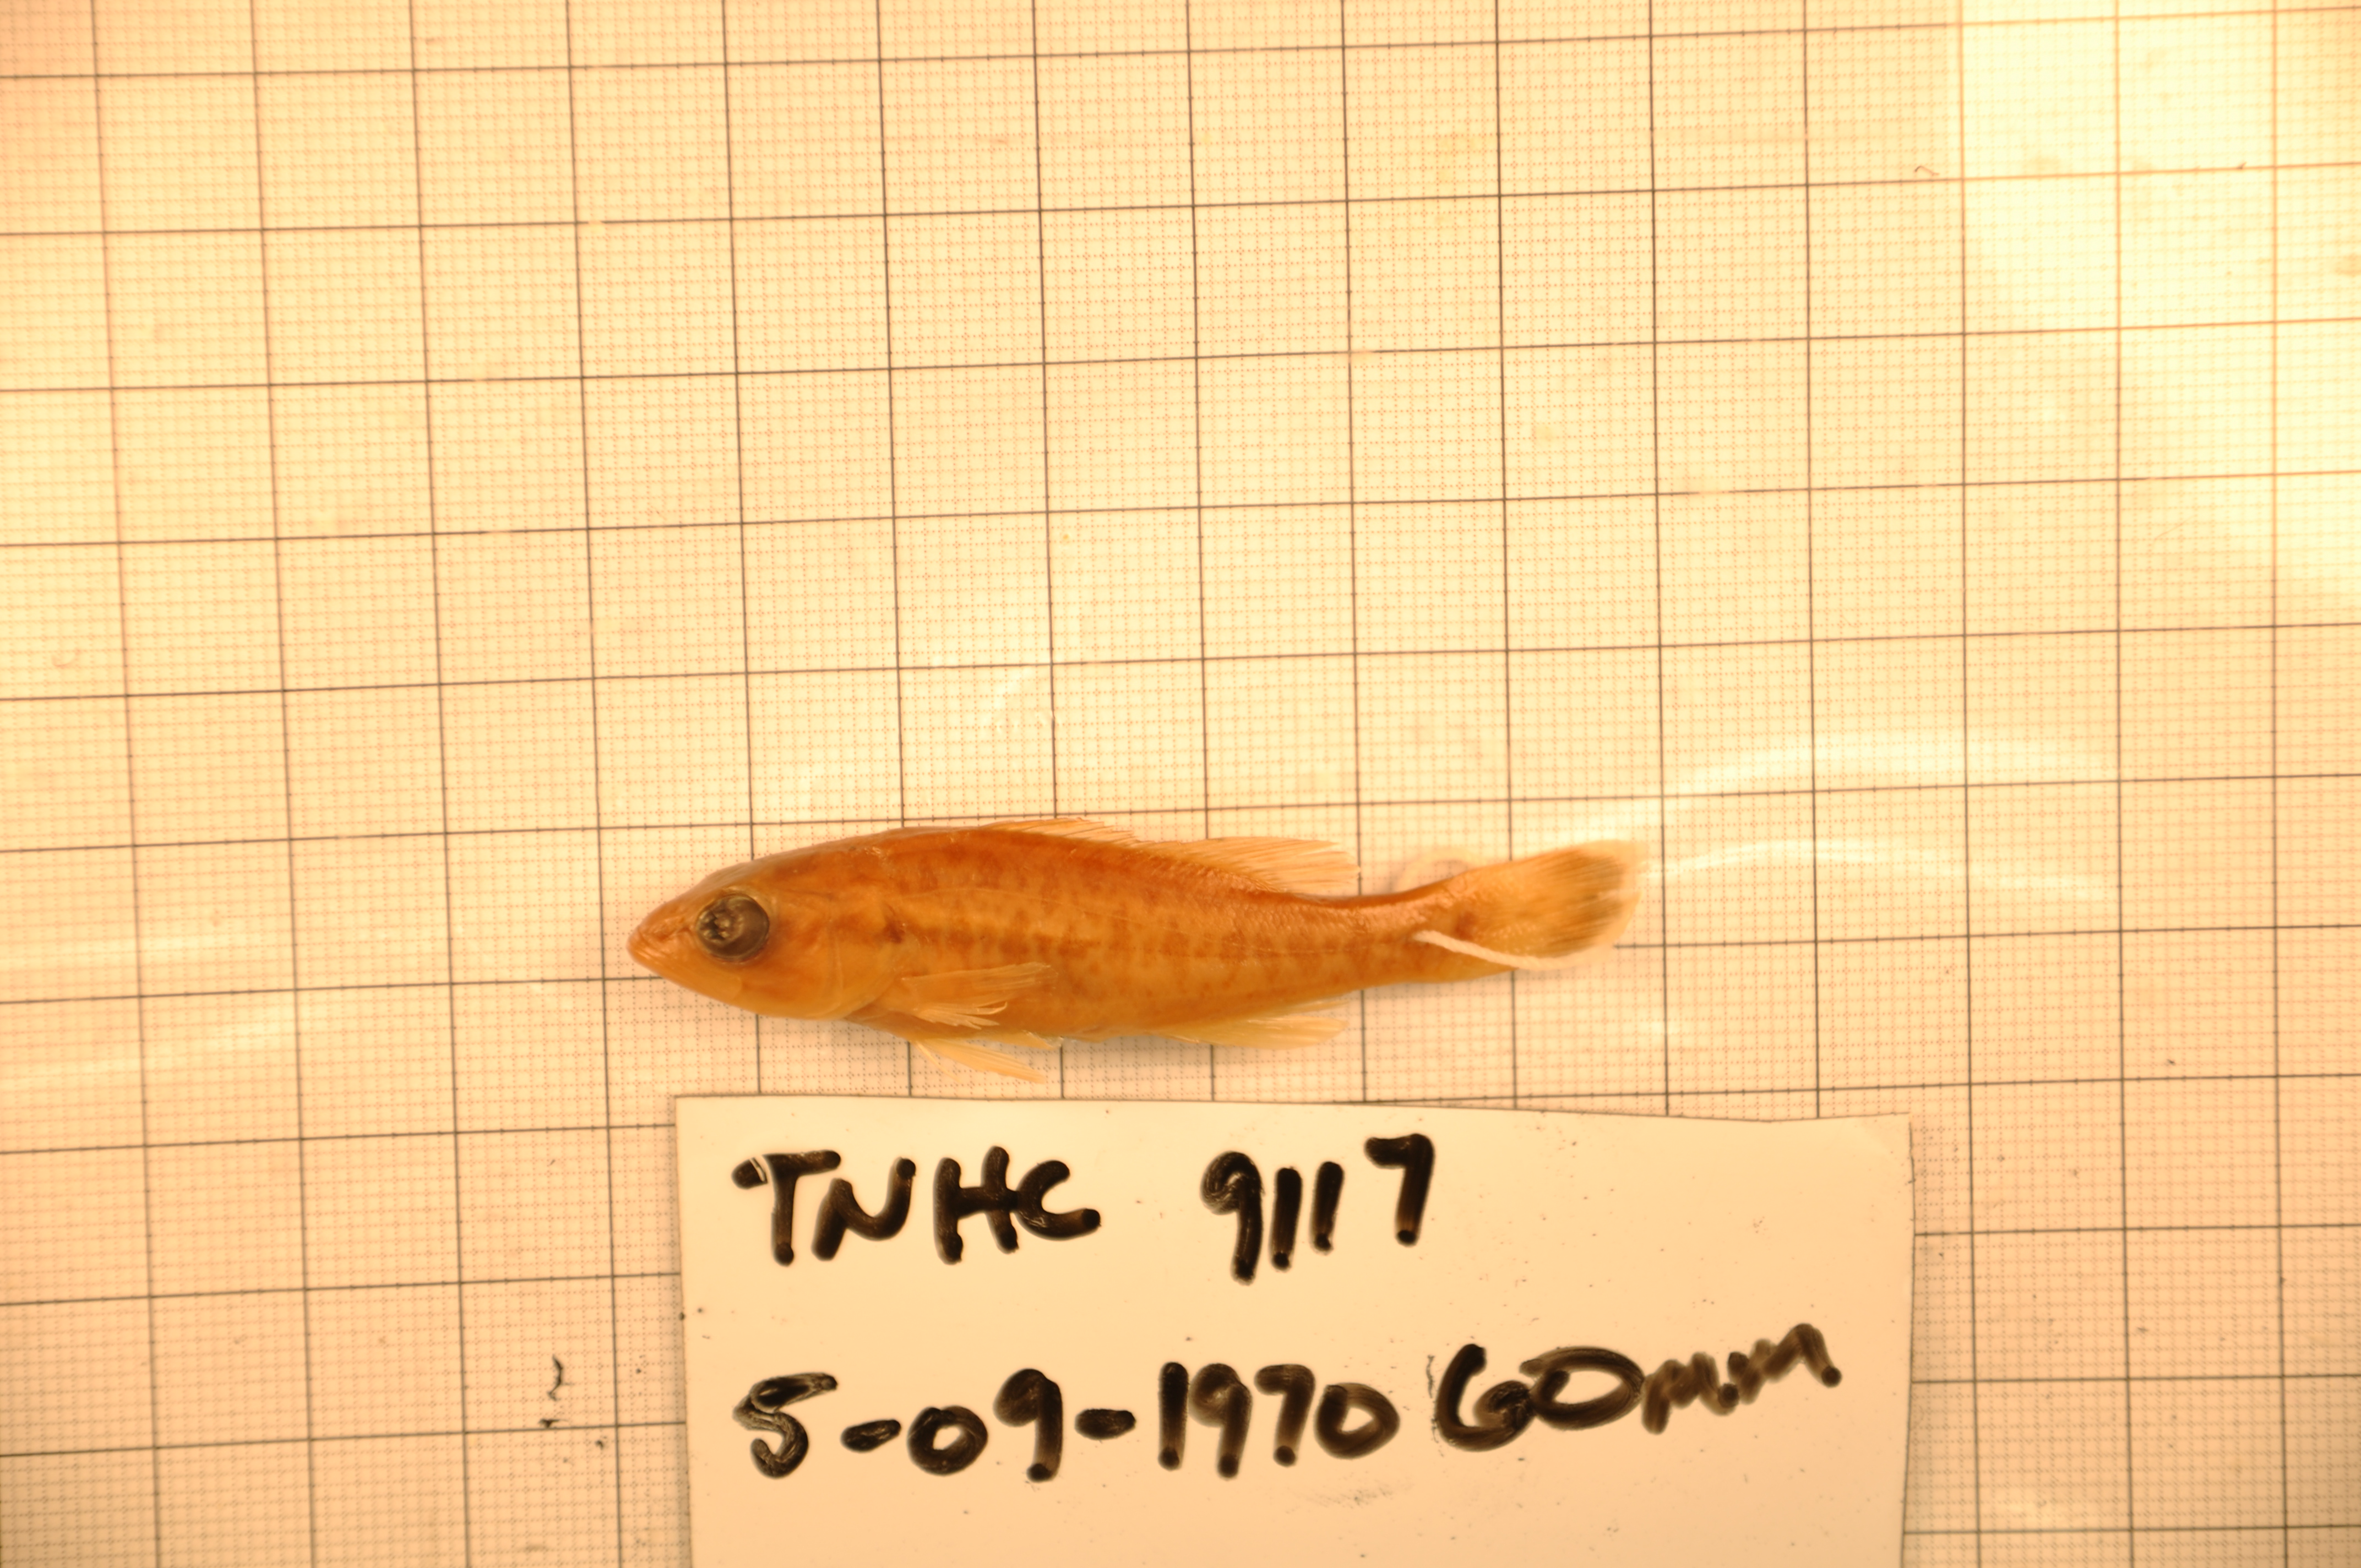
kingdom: Animalia
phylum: Chordata
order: Perciformes
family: Centrarchidae
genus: Micropterus
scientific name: Micropterus treculii
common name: Guadalupe bass
